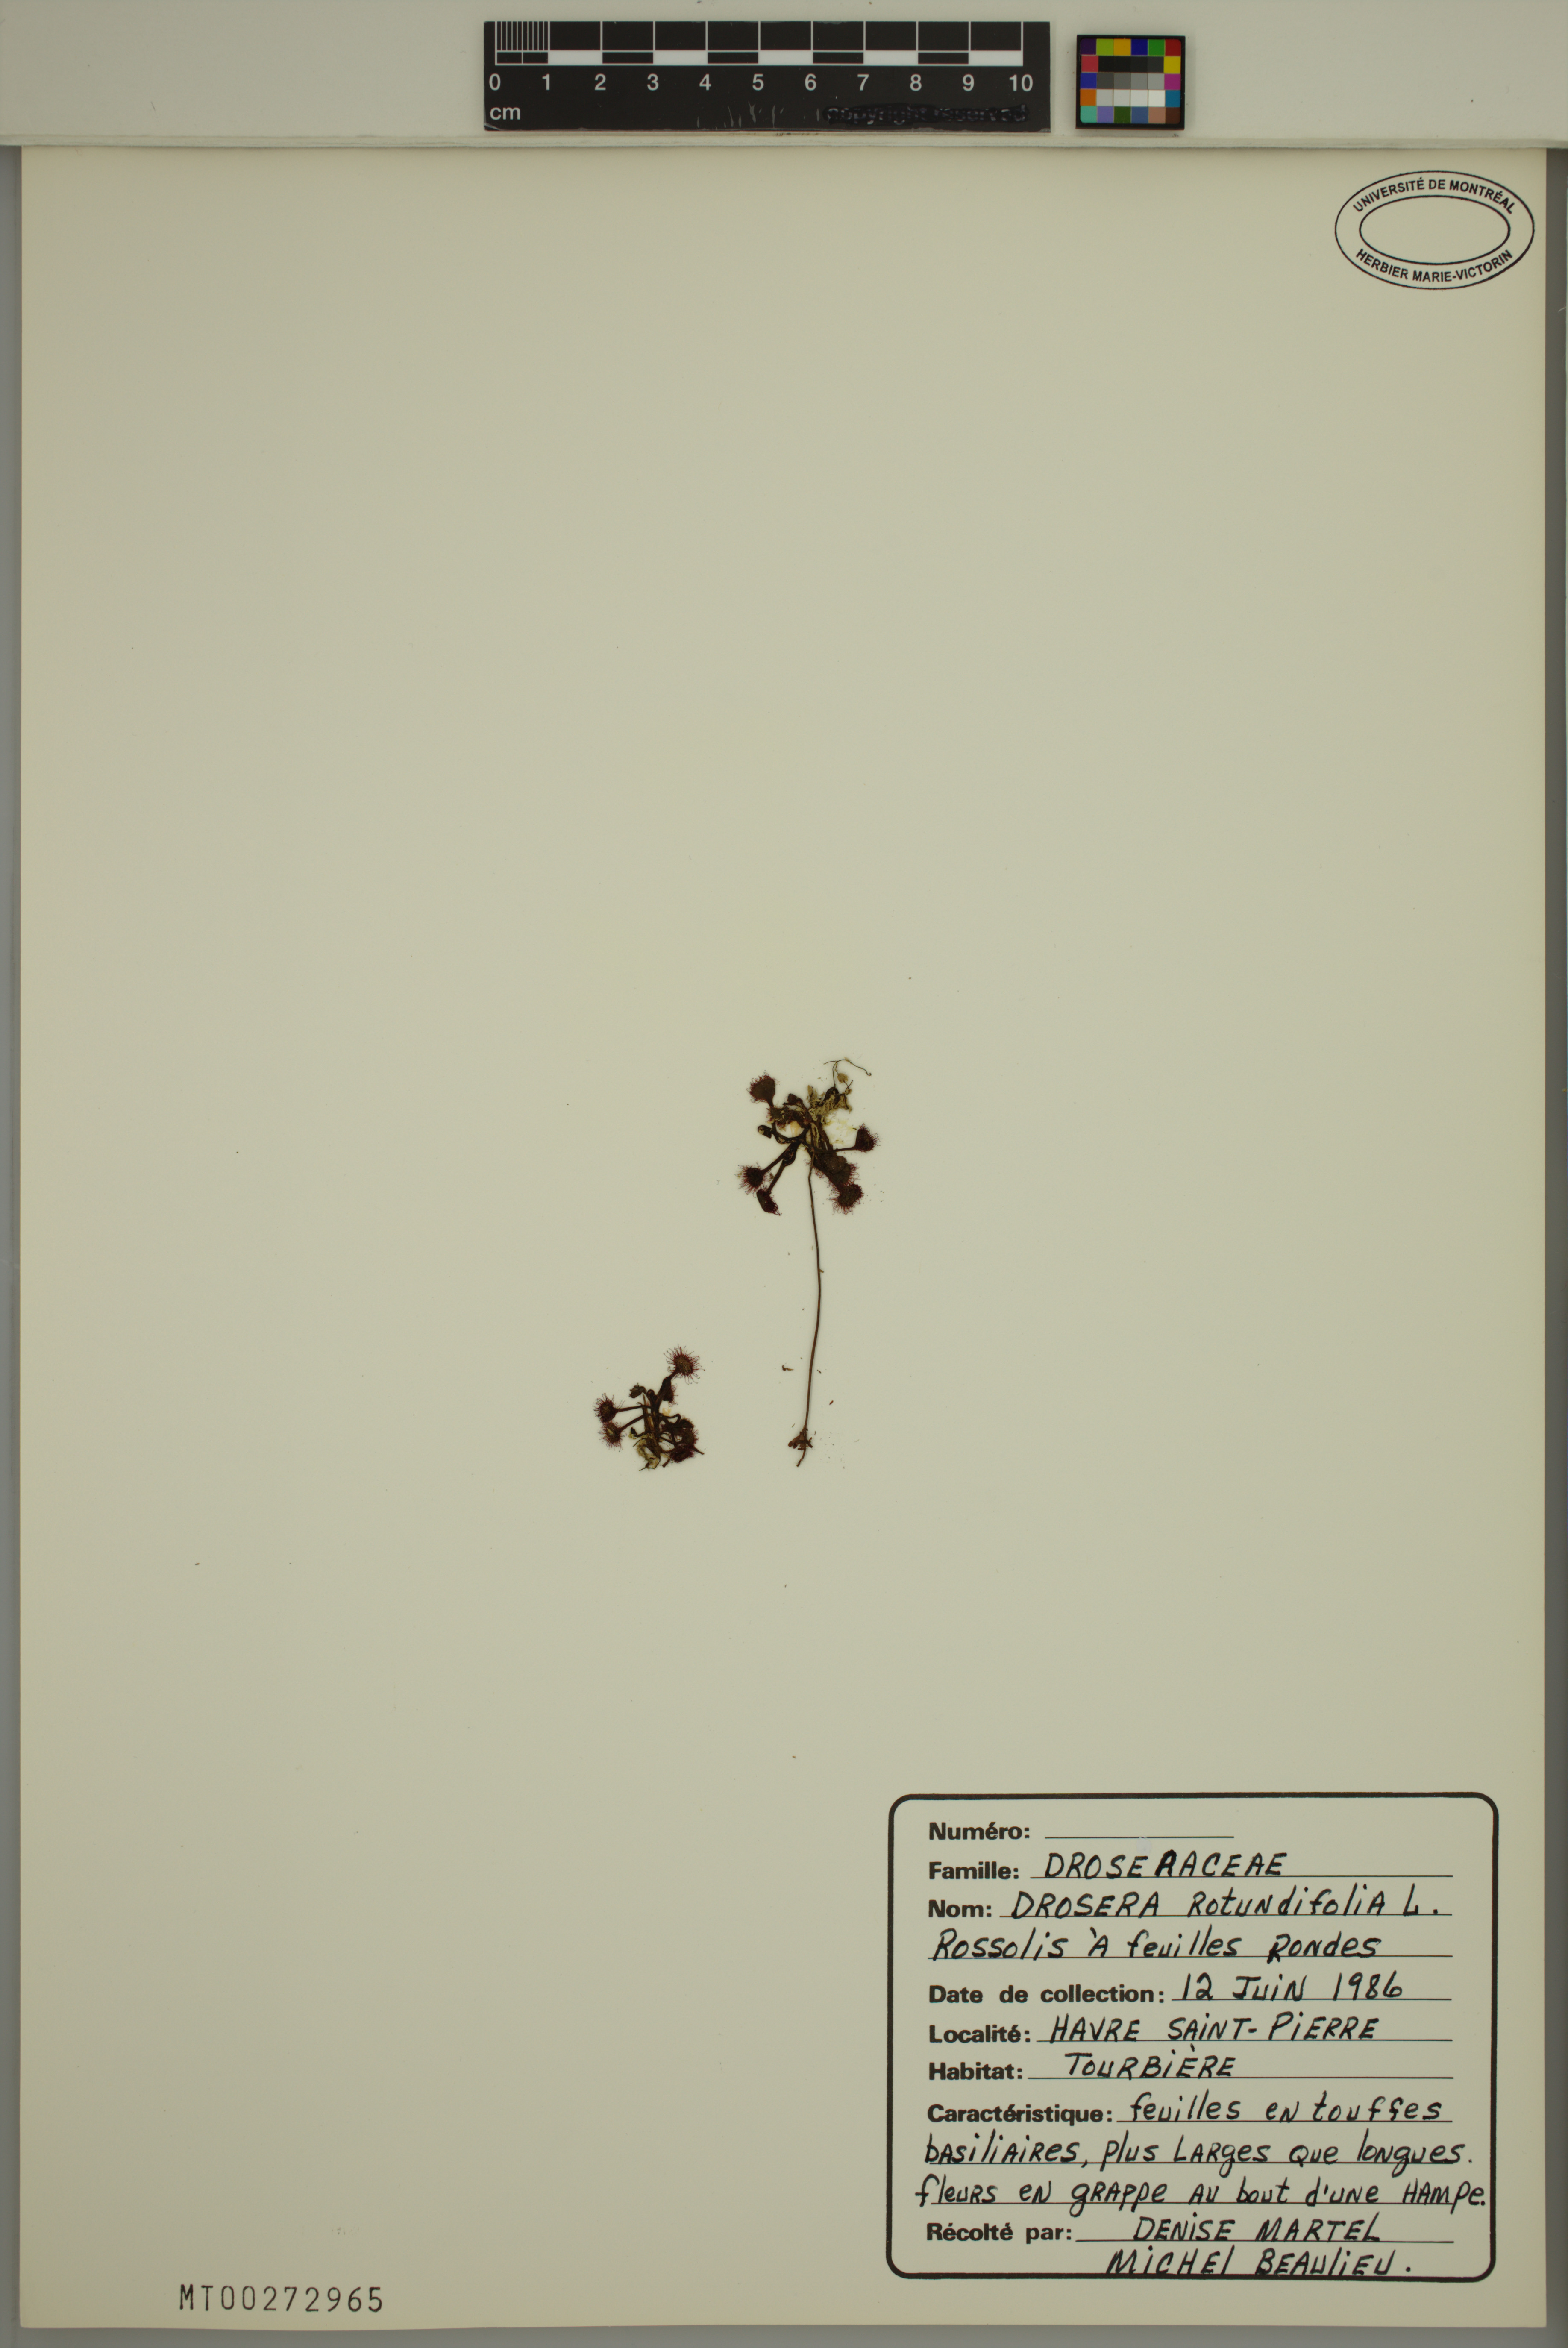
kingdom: Plantae
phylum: Tracheophyta
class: Magnoliopsida
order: Caryophyllales
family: Droseraceae
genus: Drosera
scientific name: Drosera rotundifolia
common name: Round-leaved sundew
